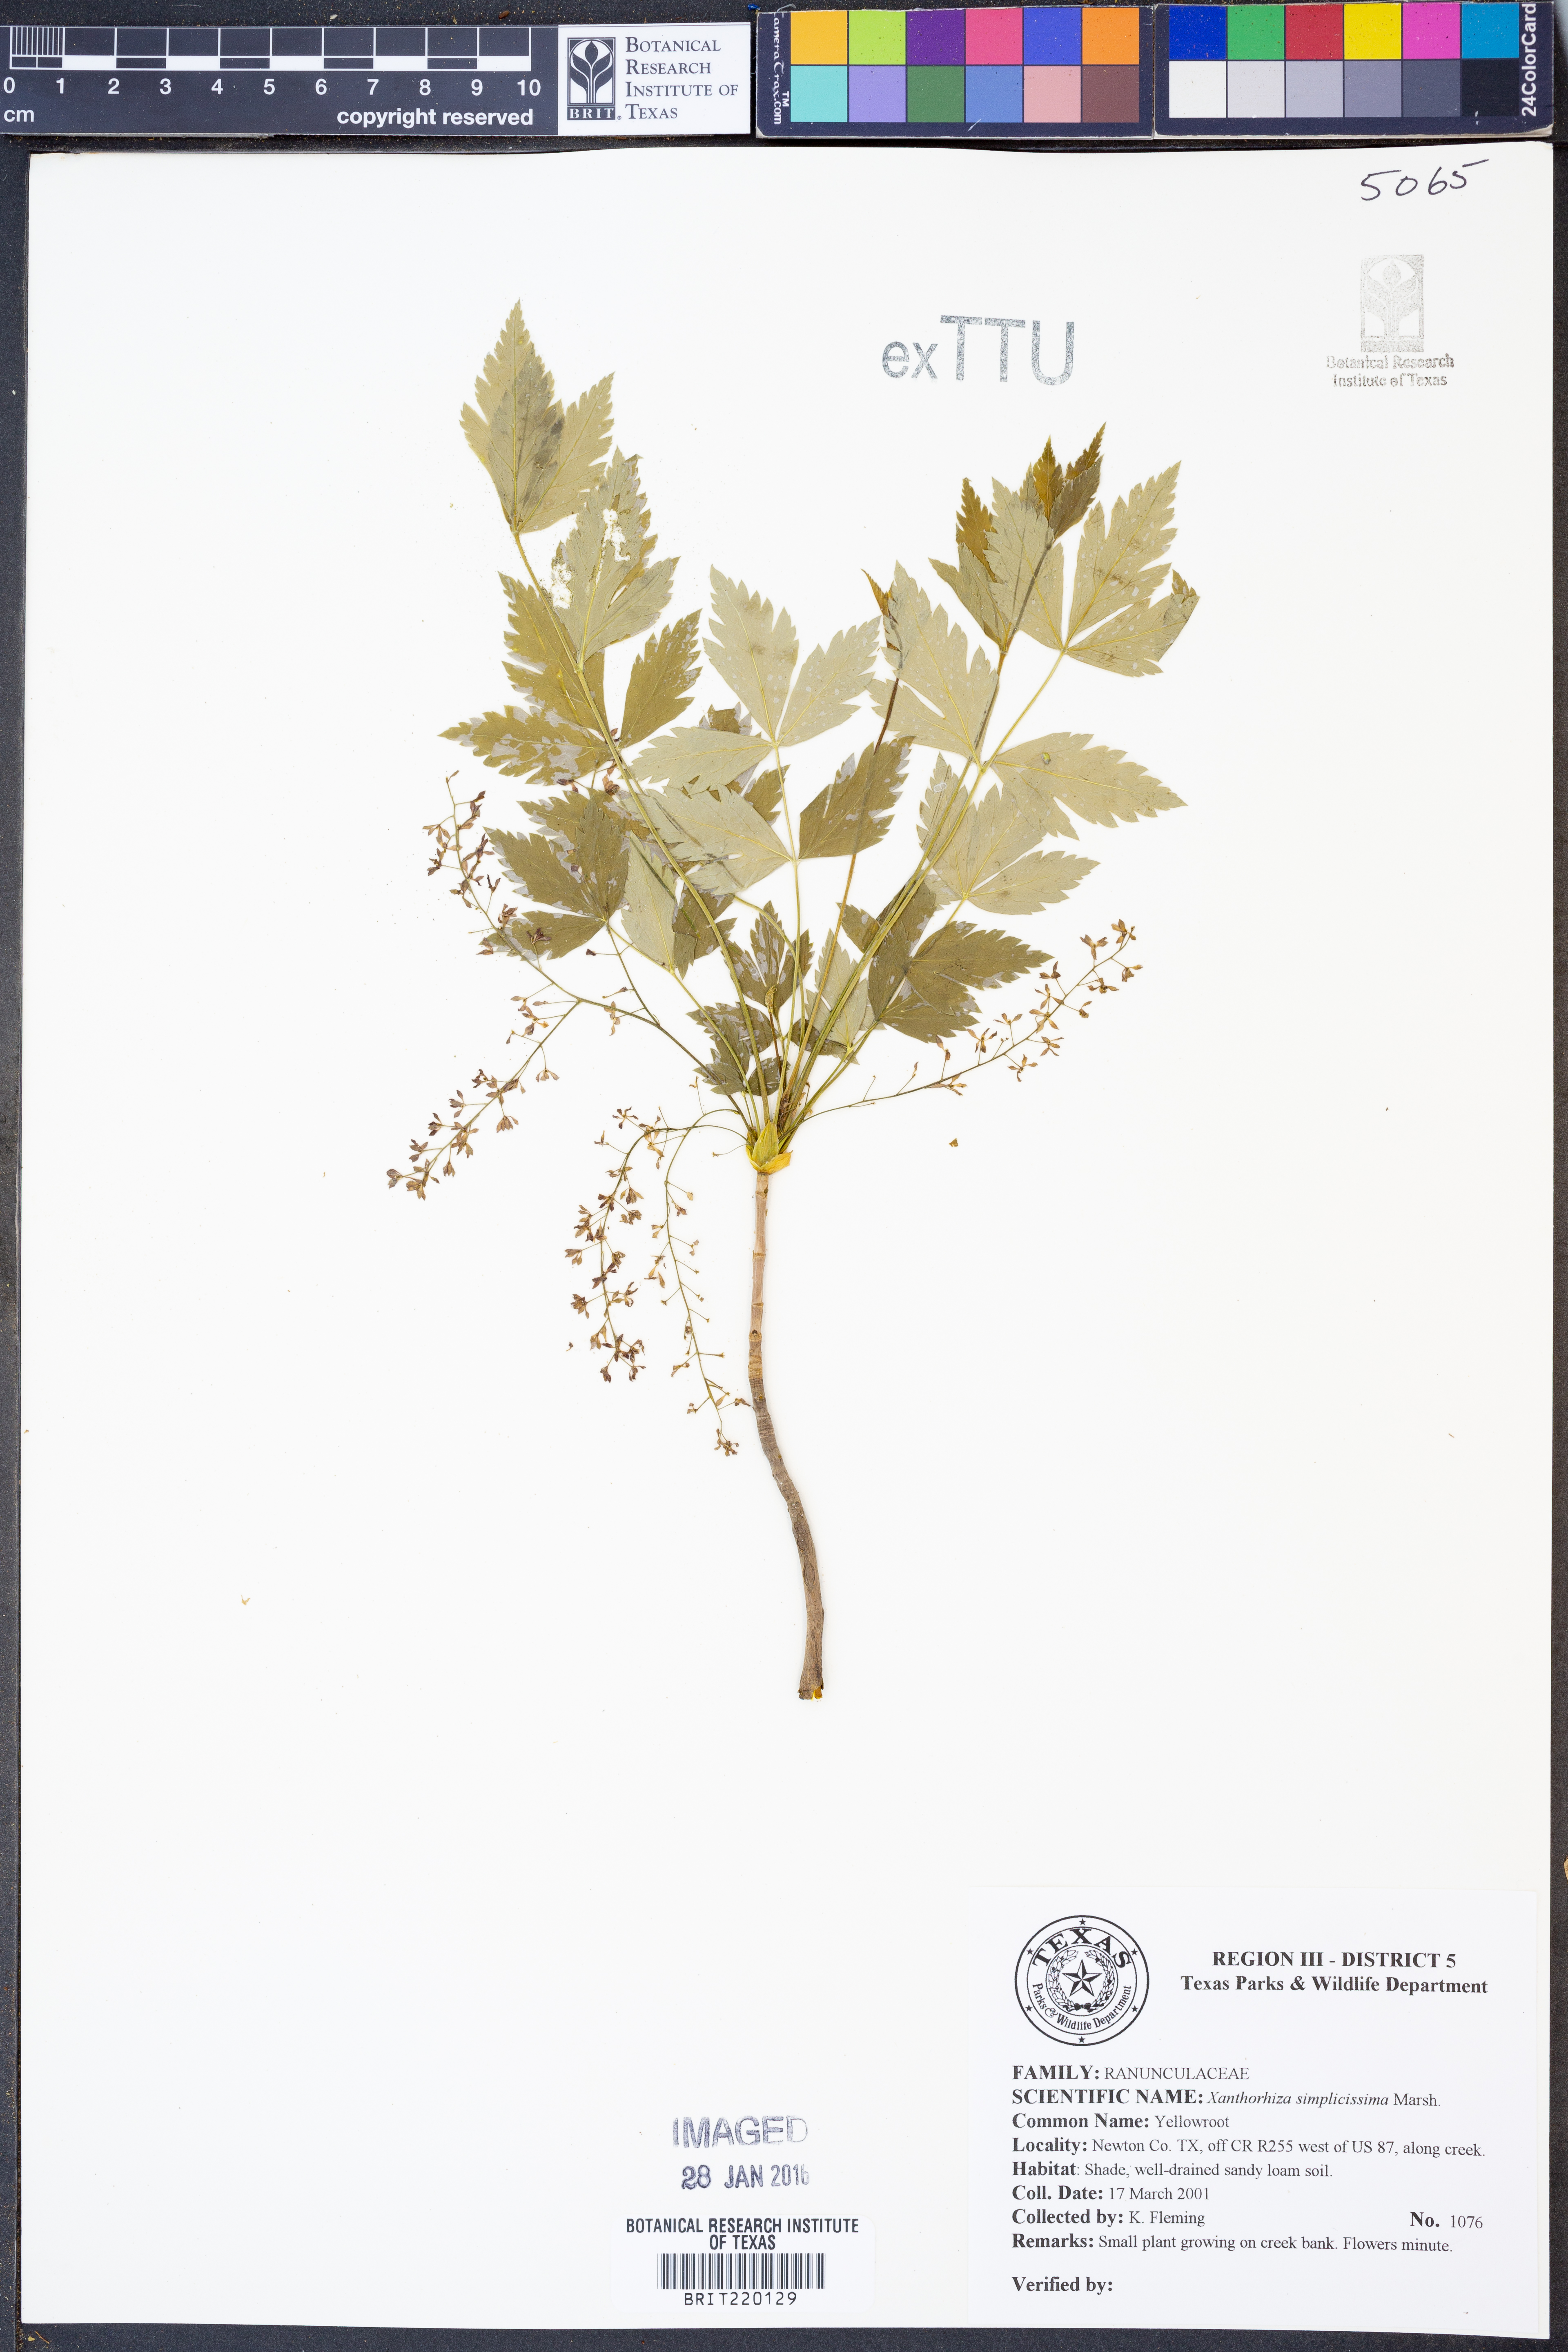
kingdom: Plantae
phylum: Tracheophyta
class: Magnoliopsida
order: Ranunculales
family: Ranunculaceae
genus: Xanthorhiza
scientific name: Xanthorhiza simplicissima
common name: Yellowroot
